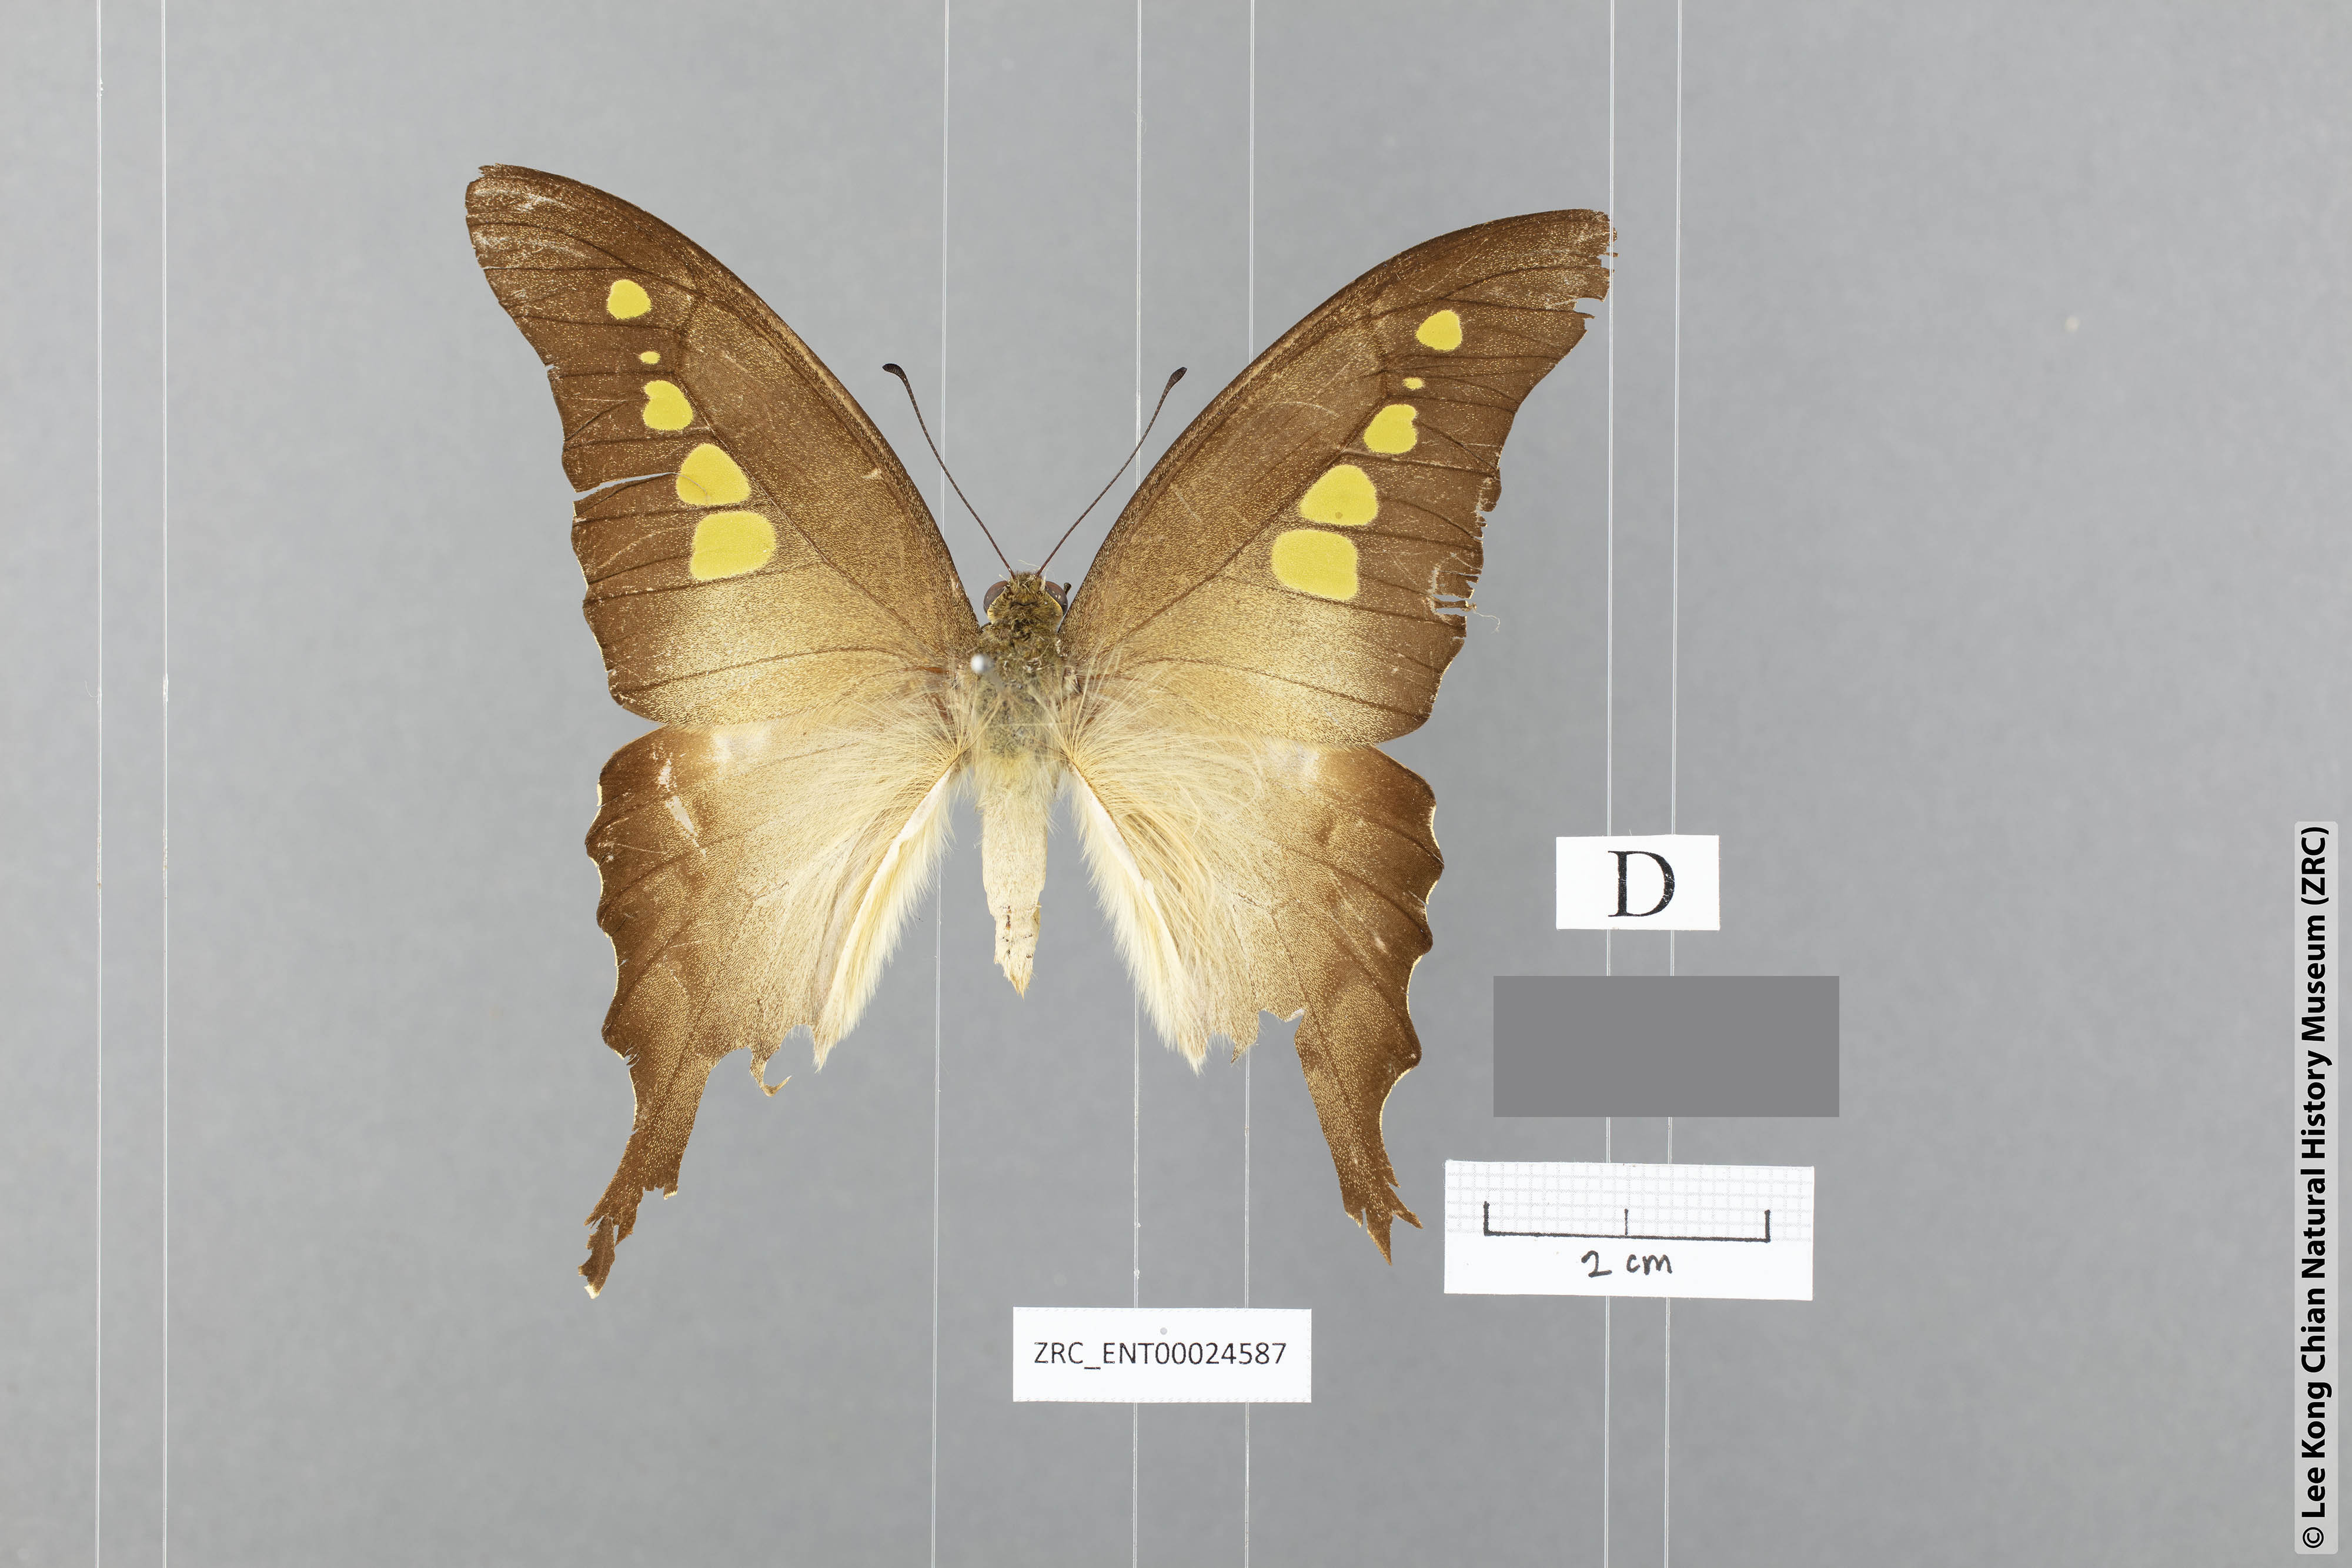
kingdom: Animalia
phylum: Arthropoda
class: Insecta
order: Lepidoptera
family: Papilionidae
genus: Graphium
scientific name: Graphium empedovana
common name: Malayan yellowbottle
